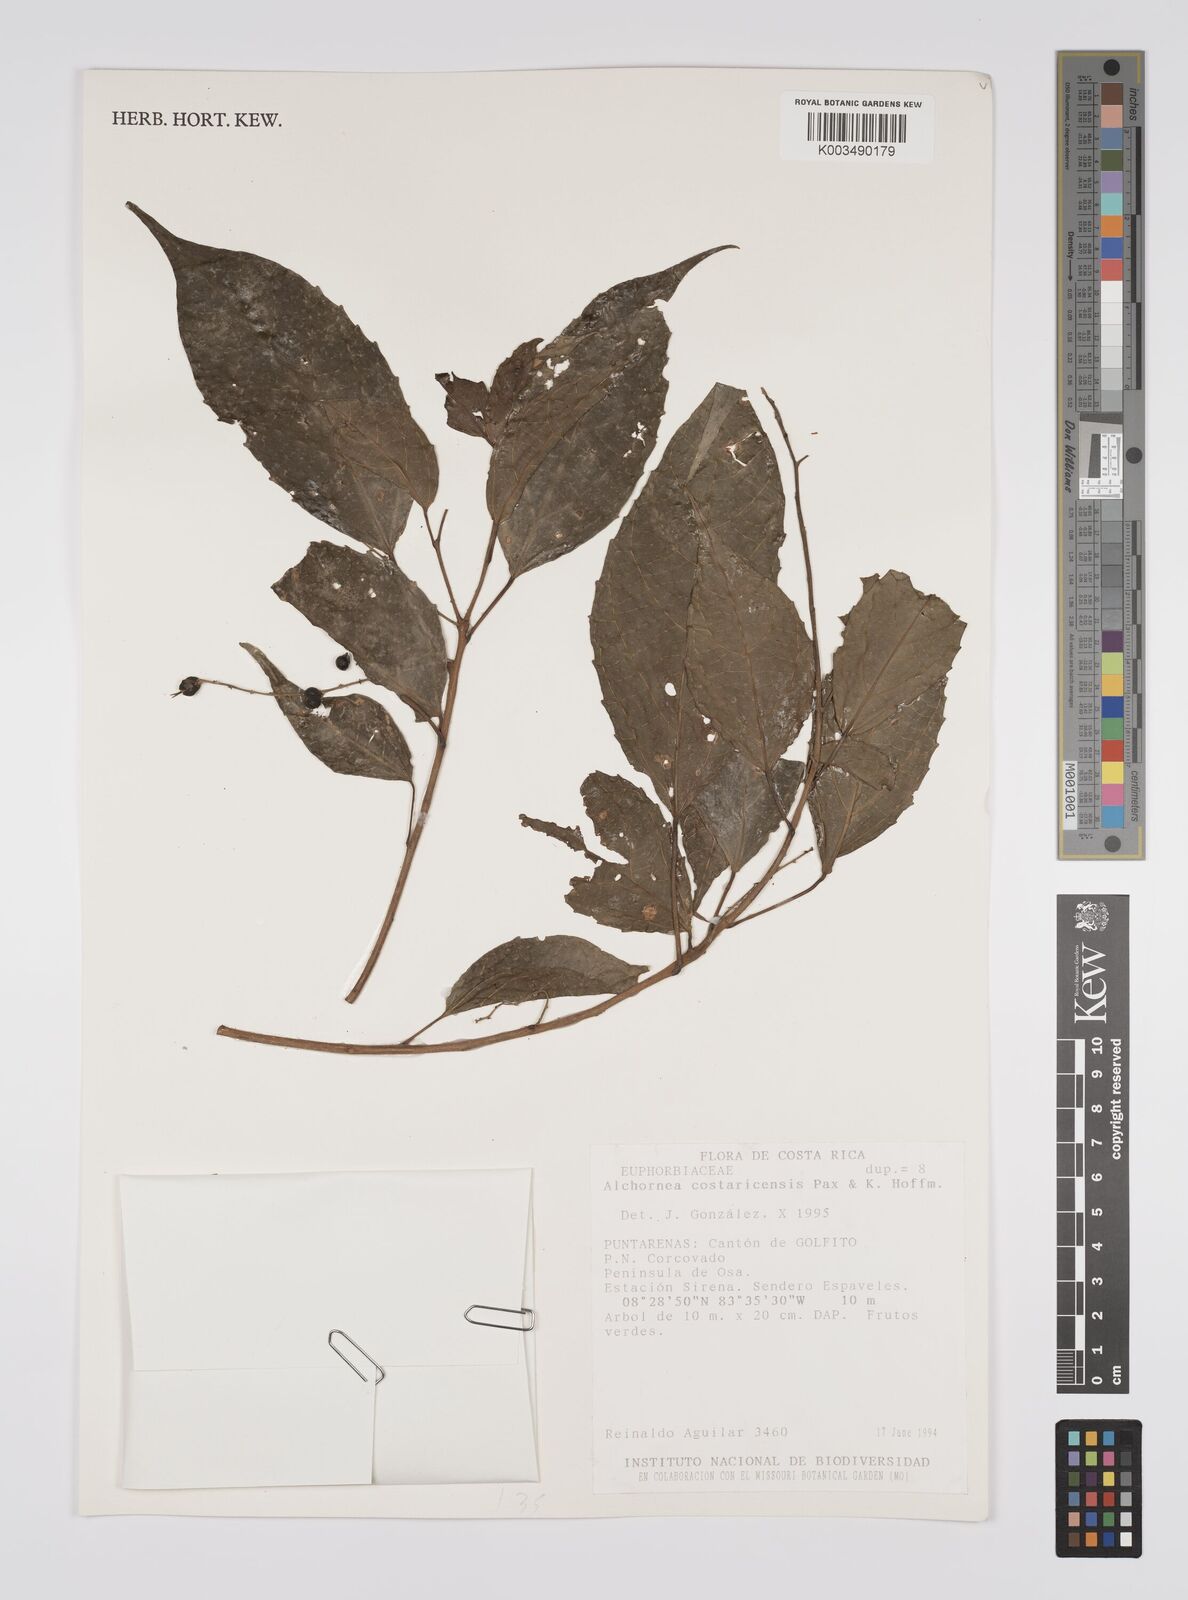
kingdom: Plantae
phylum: Tracheophyta
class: Magnoliopsida
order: Malpighiales
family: Euphorbiaceae
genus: Alchornea
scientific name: Alchornea costaricensis
